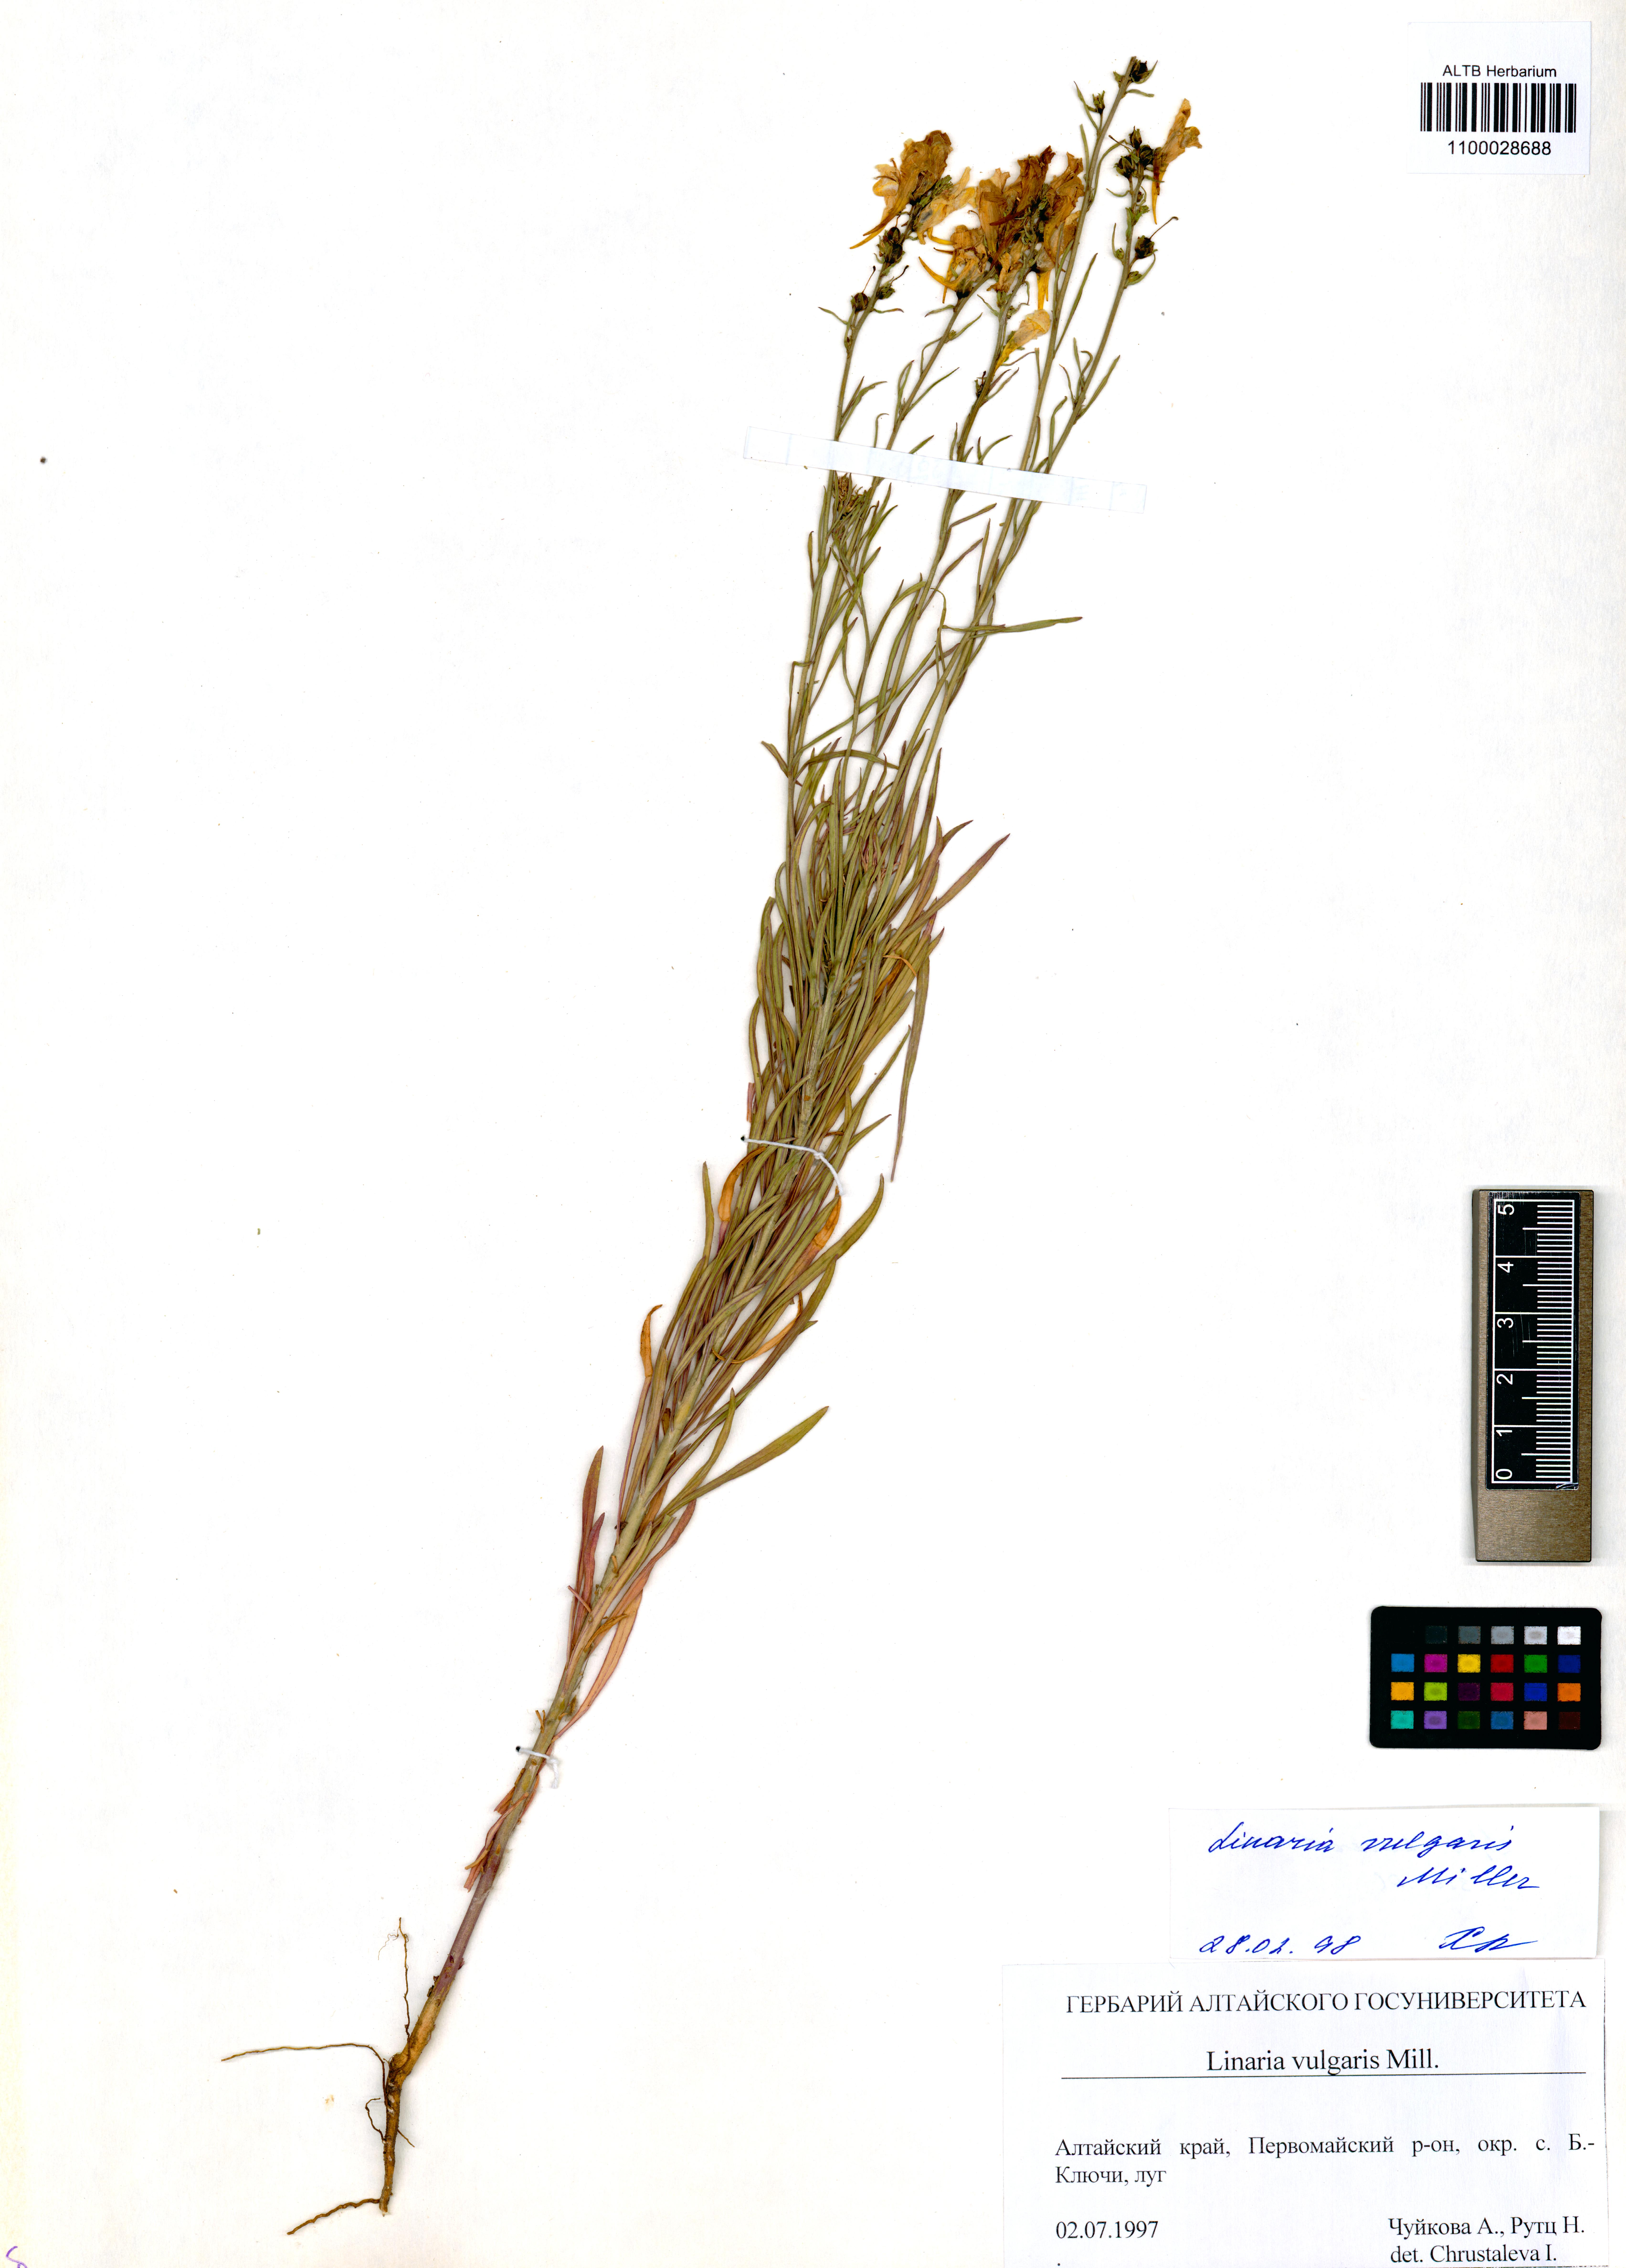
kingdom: Plantae
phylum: Tracheophyta
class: Magnoliopsida
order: Lamiales
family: Plantaginaceae
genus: Linaria
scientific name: Linaria vulgaris
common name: Butter and eggs
